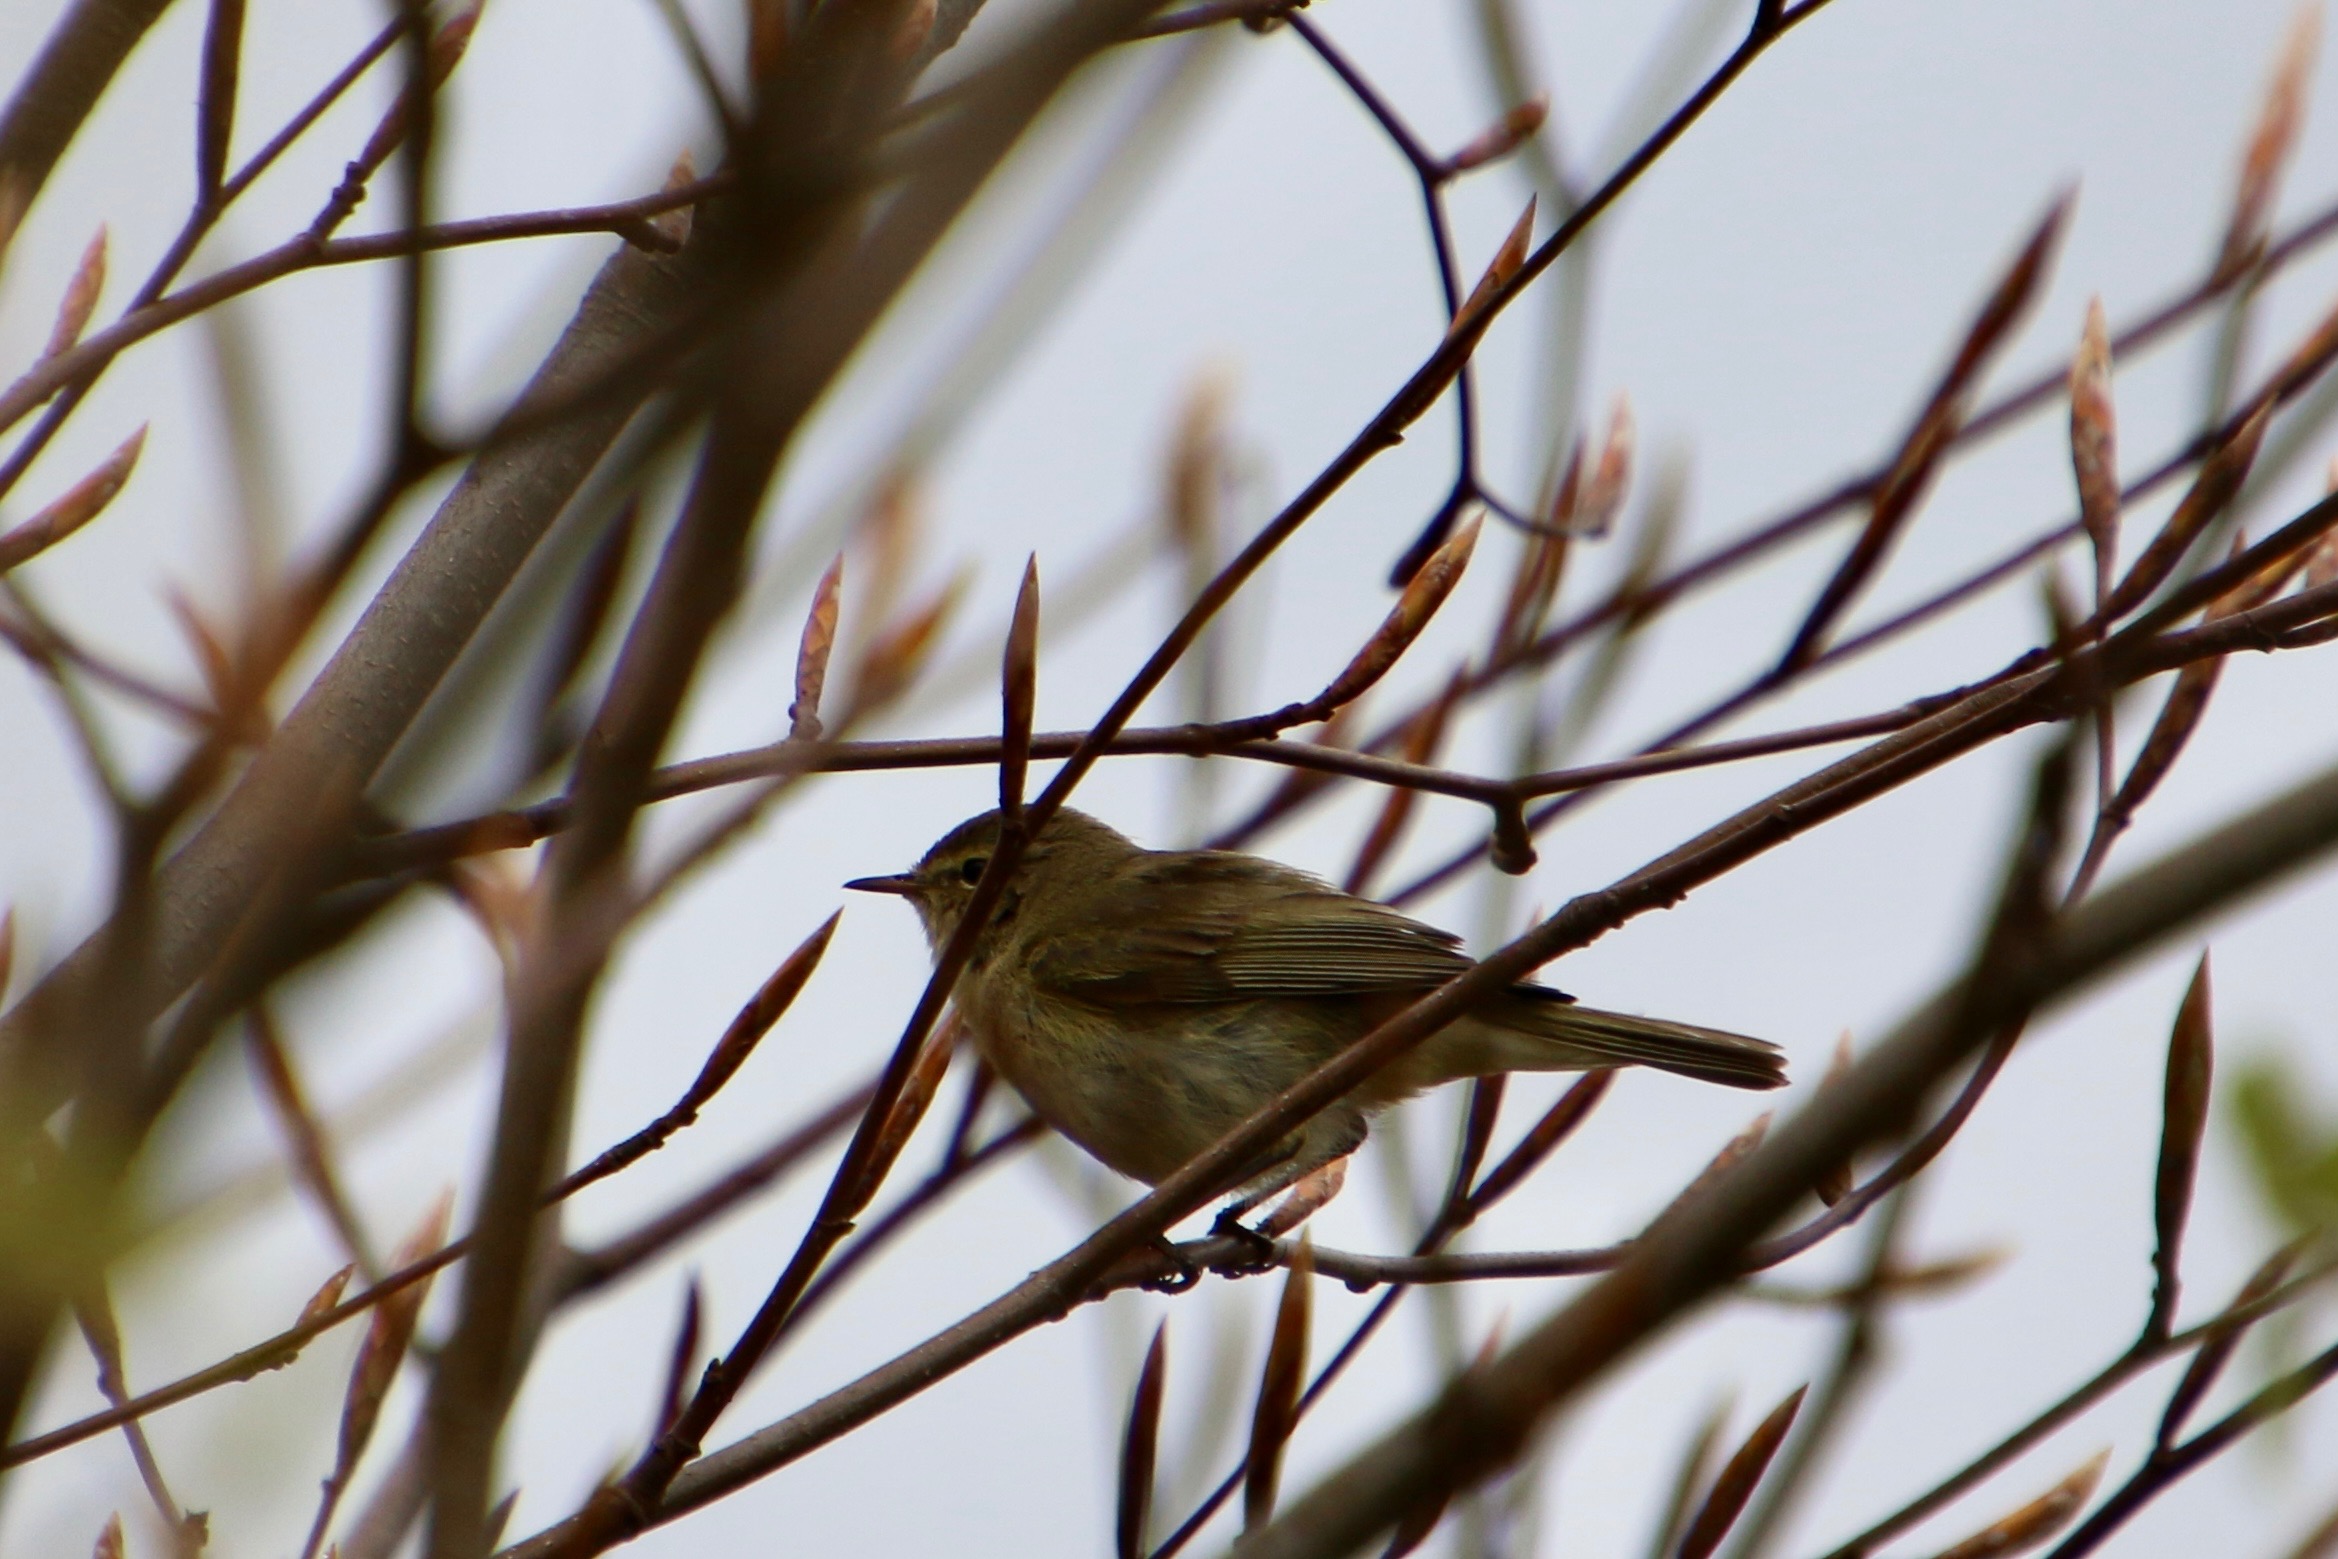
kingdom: Animalia
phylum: Chordata
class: Aves
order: Passeriformes
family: Phylloscopidae
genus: Phylloscopus
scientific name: Phylloscopus trochilus
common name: Løvsanger
